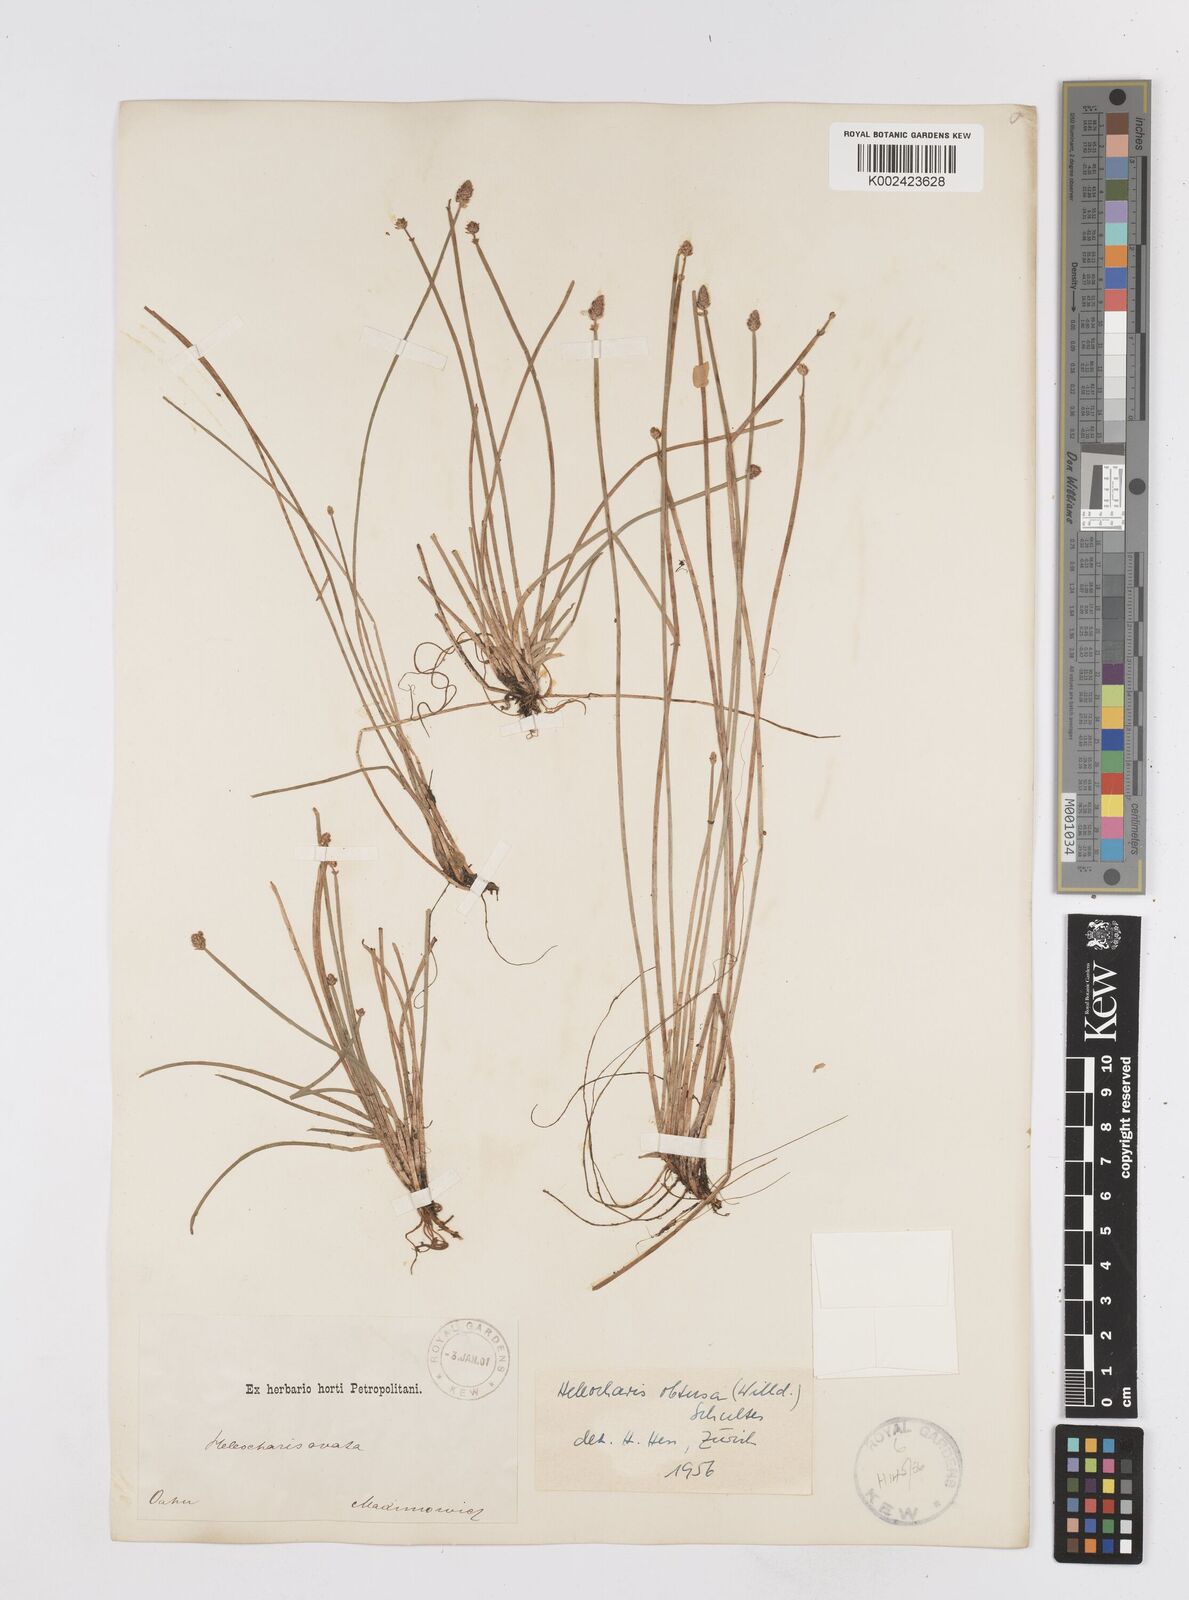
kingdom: Plantae
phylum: Tracheophyta
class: Liliopsida
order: Poales
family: Cyperaceae
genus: Eleocharis
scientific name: Eleocharis obtusa
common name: Blunt spikerush
